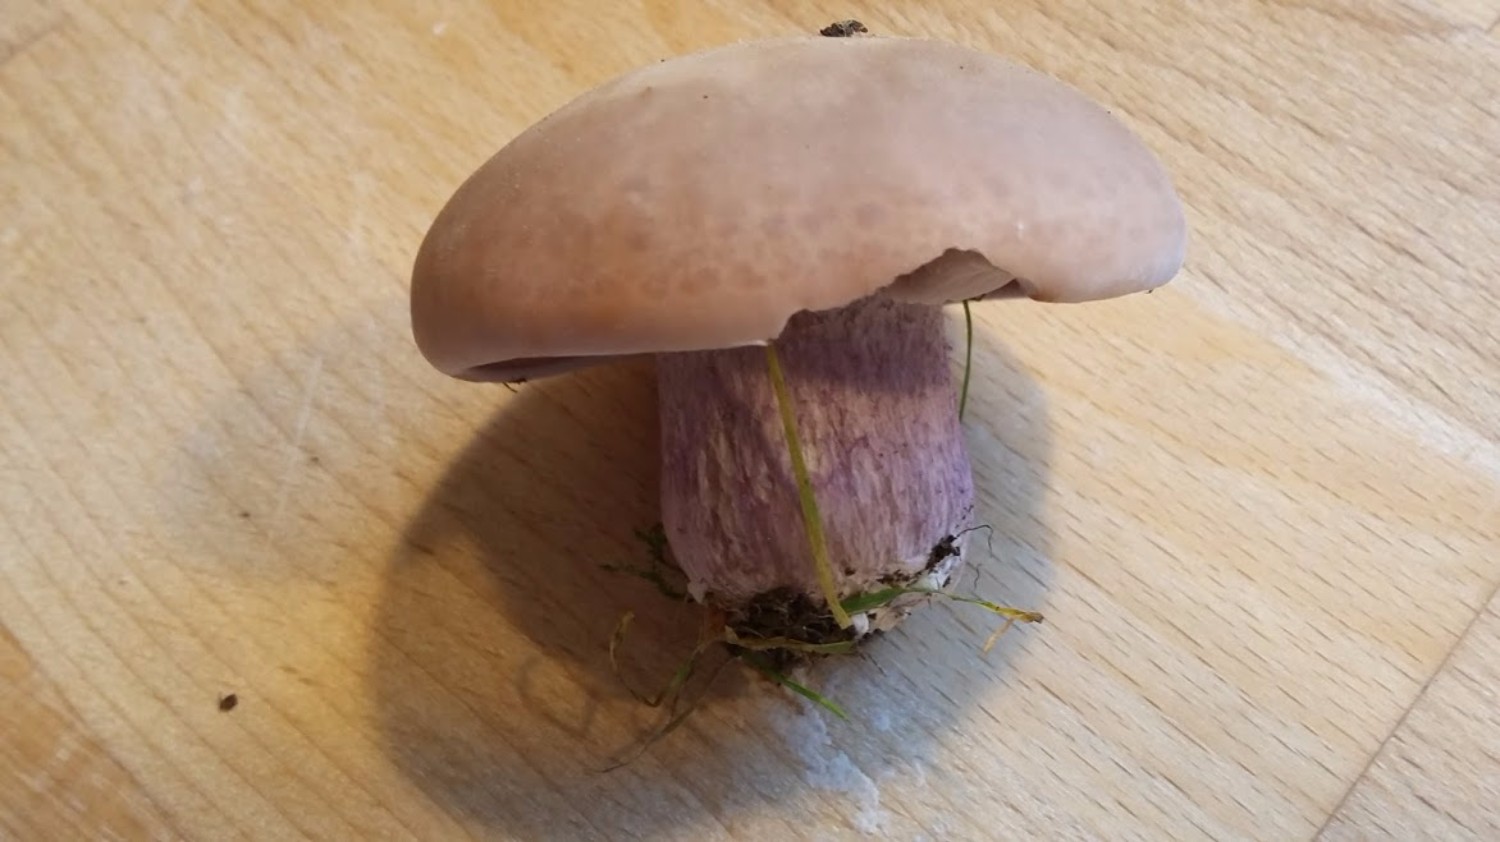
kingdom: Fungi
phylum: Basidiomycota
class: Agaricomycetes
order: Agaricales
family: Tricholomataceae
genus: Lepista
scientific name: Lepista personata
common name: bleg hekseringshat
